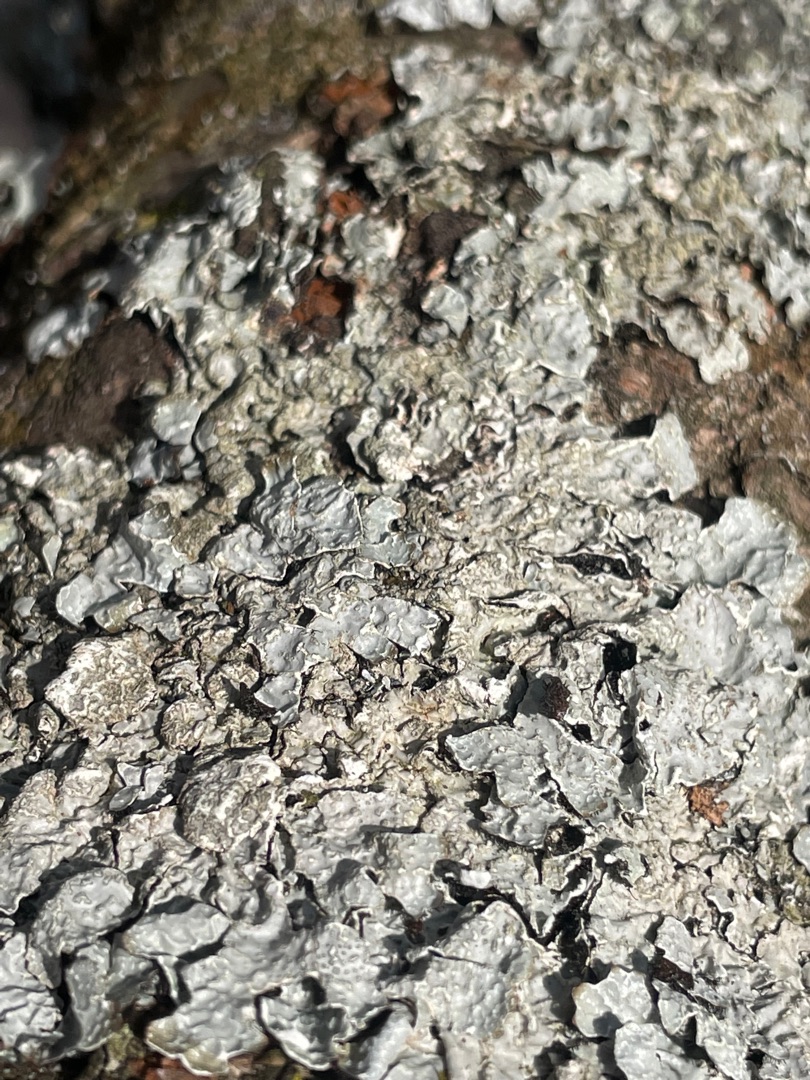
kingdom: Fungi
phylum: Ascomycota
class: Lecanoromycetes
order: Lecanorales
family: Parmeliaceae
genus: Parmelia
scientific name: Parmelia sulcata
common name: Rynket skållav
